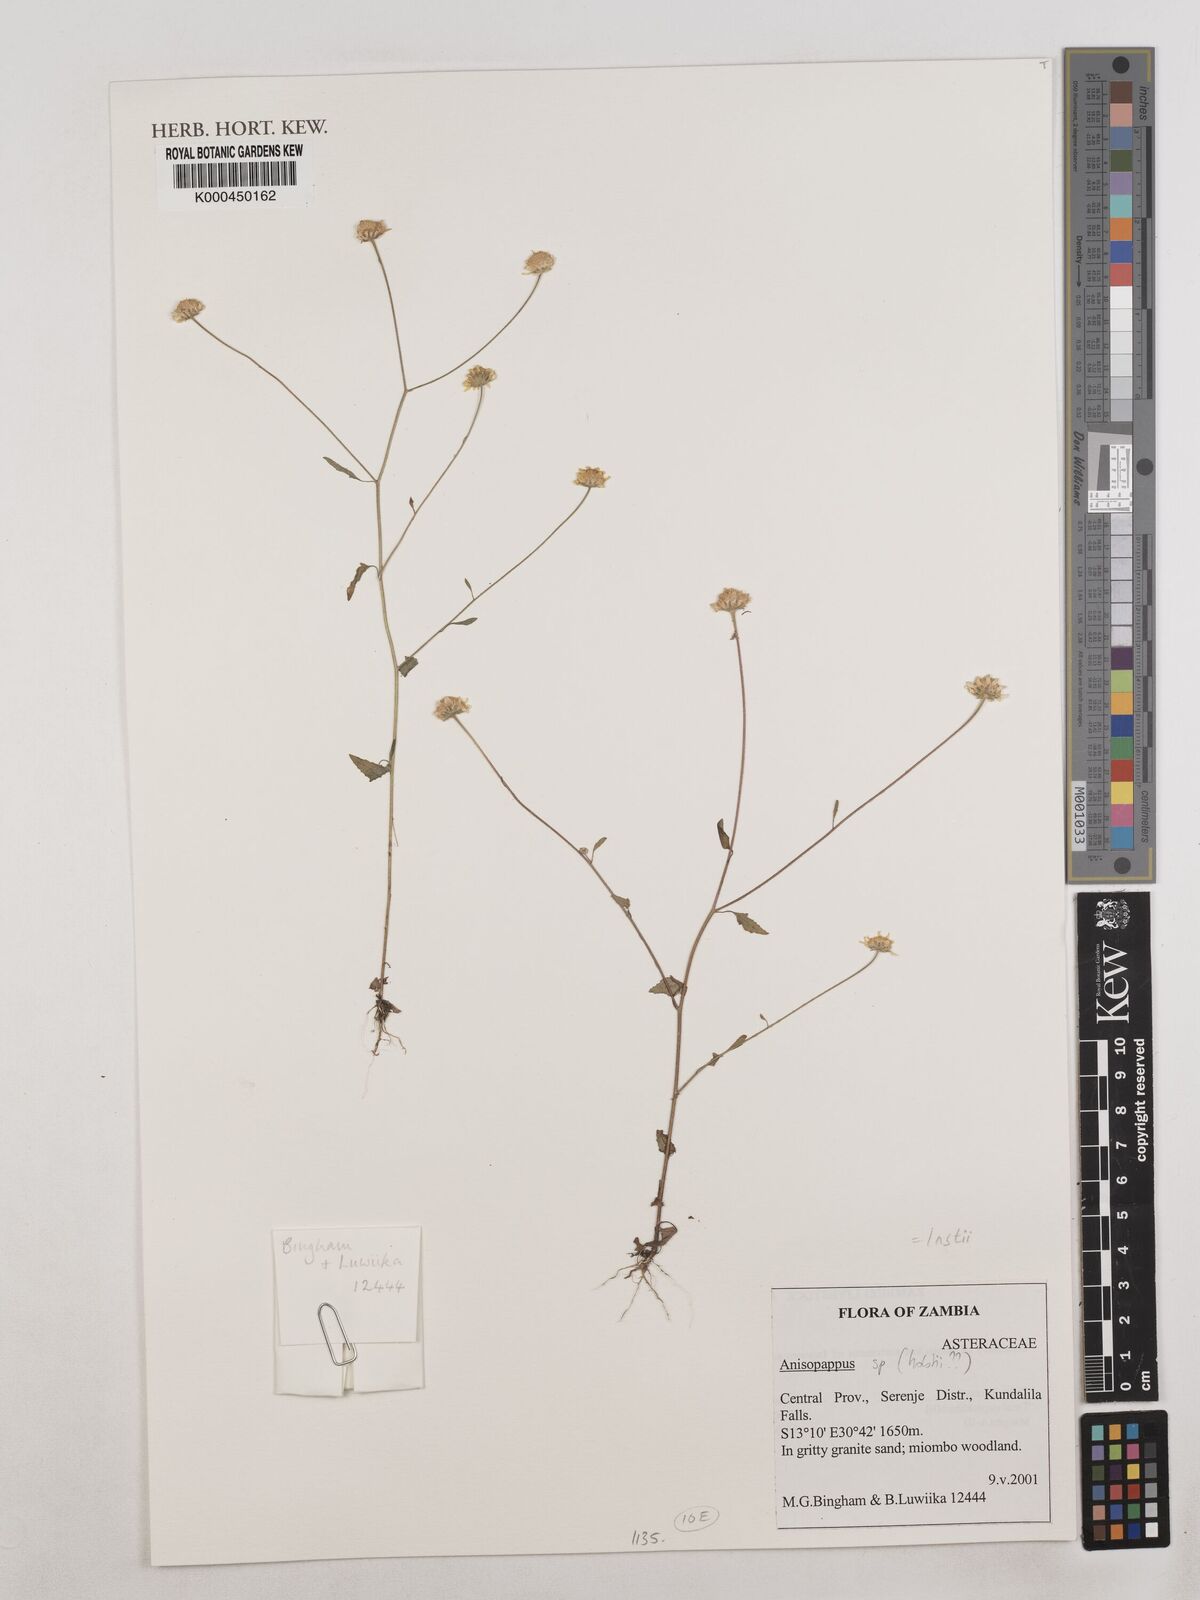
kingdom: Plantae
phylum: Tracheophyta
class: Magnoliopsida
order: Asterales
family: Asteraceae
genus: Anisopappus
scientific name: Anisopappus
